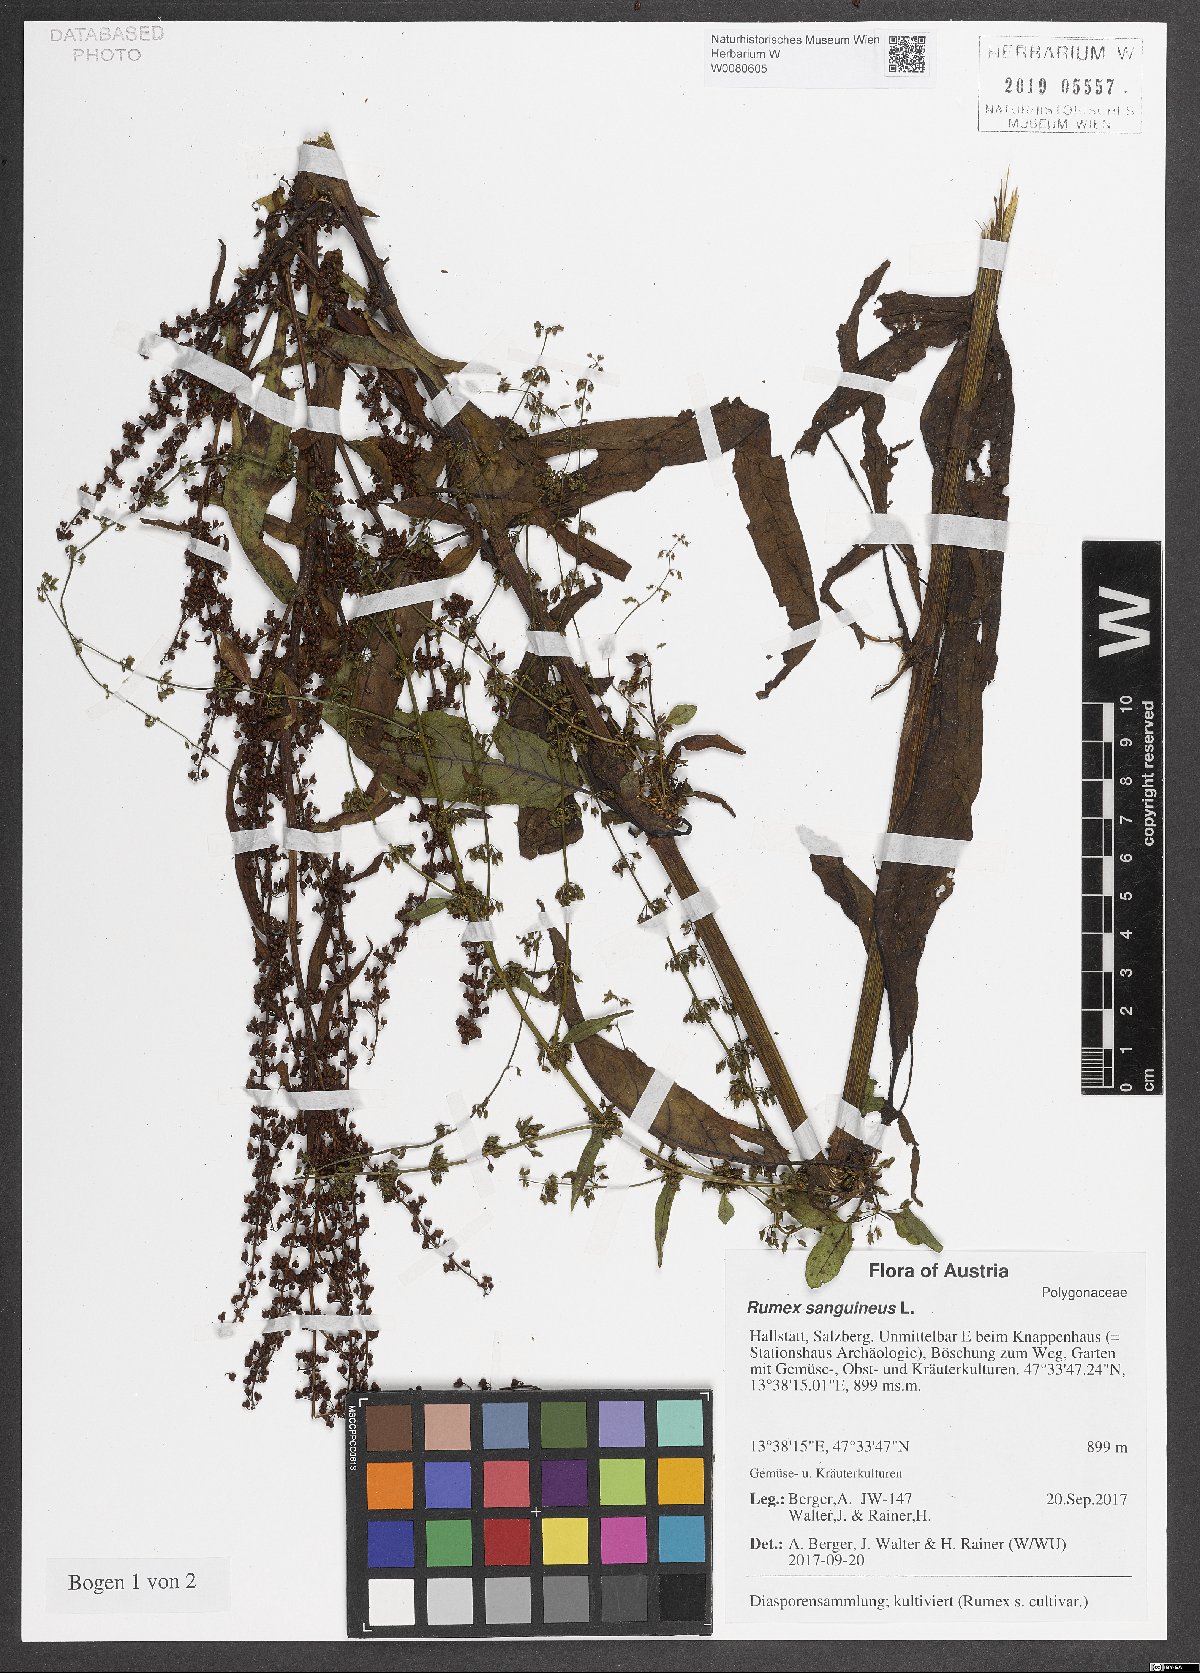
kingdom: Plantae
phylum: Tracheophyta
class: Magnoliopsida
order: Caryophyllales
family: Polygonaceae
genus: Rumex
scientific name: Rumex sanguineus
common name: Wood dock
